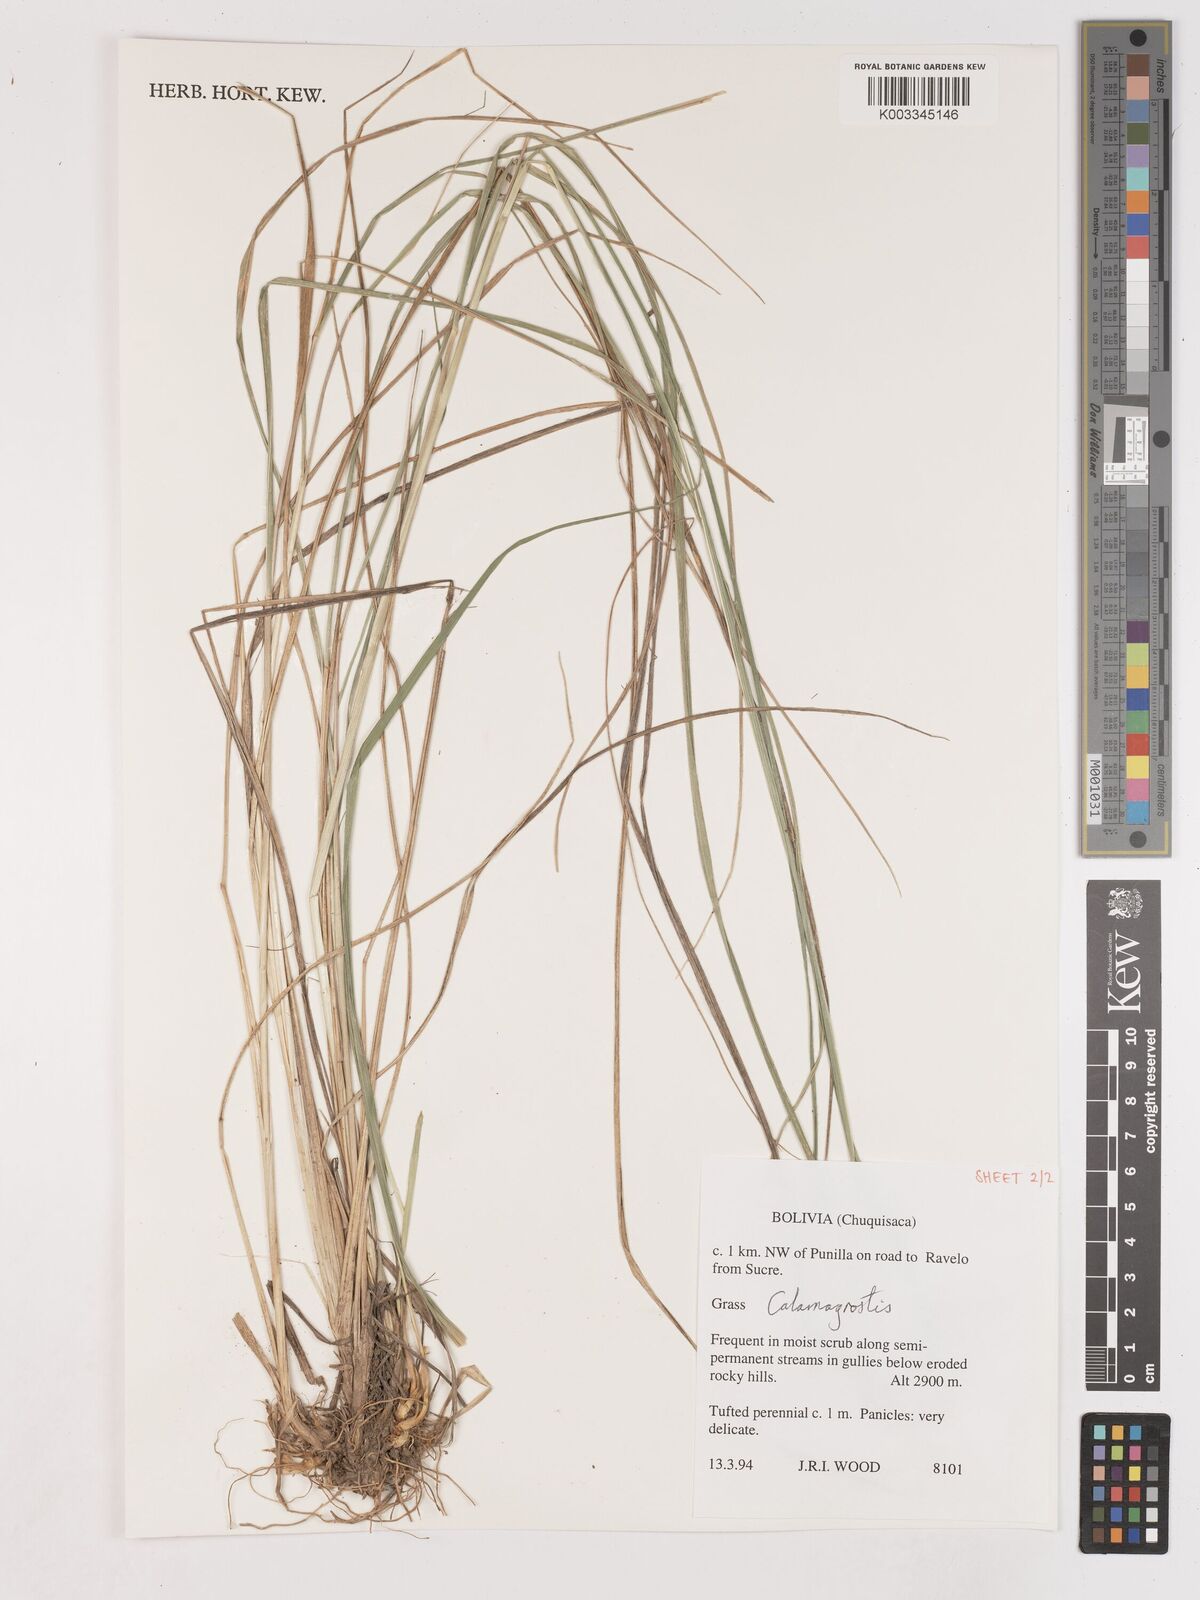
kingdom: Plantae
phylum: Tracheophyta
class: Liliopsida
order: Poales
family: Poaceae
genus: Calamagrostis
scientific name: Calamagrostis
